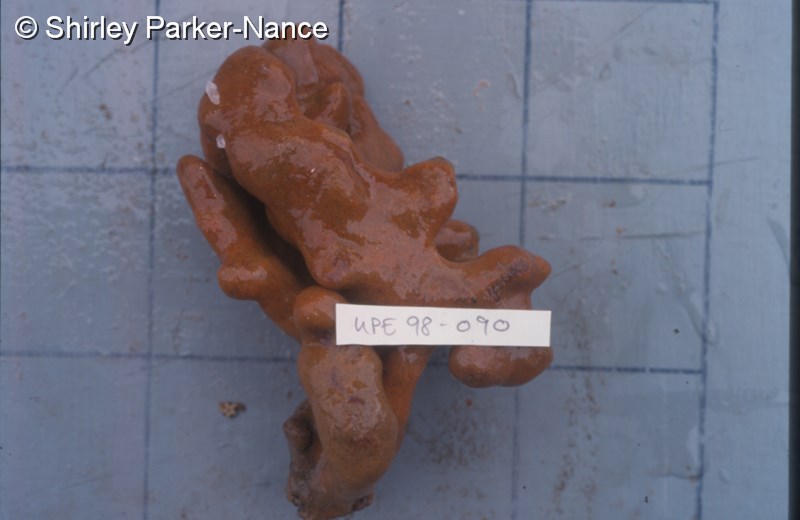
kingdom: Animalia
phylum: Chordata
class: Ascidiacea
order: Aplousobranchia
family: Polyclinidae
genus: Aplidium
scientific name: Aplidium
